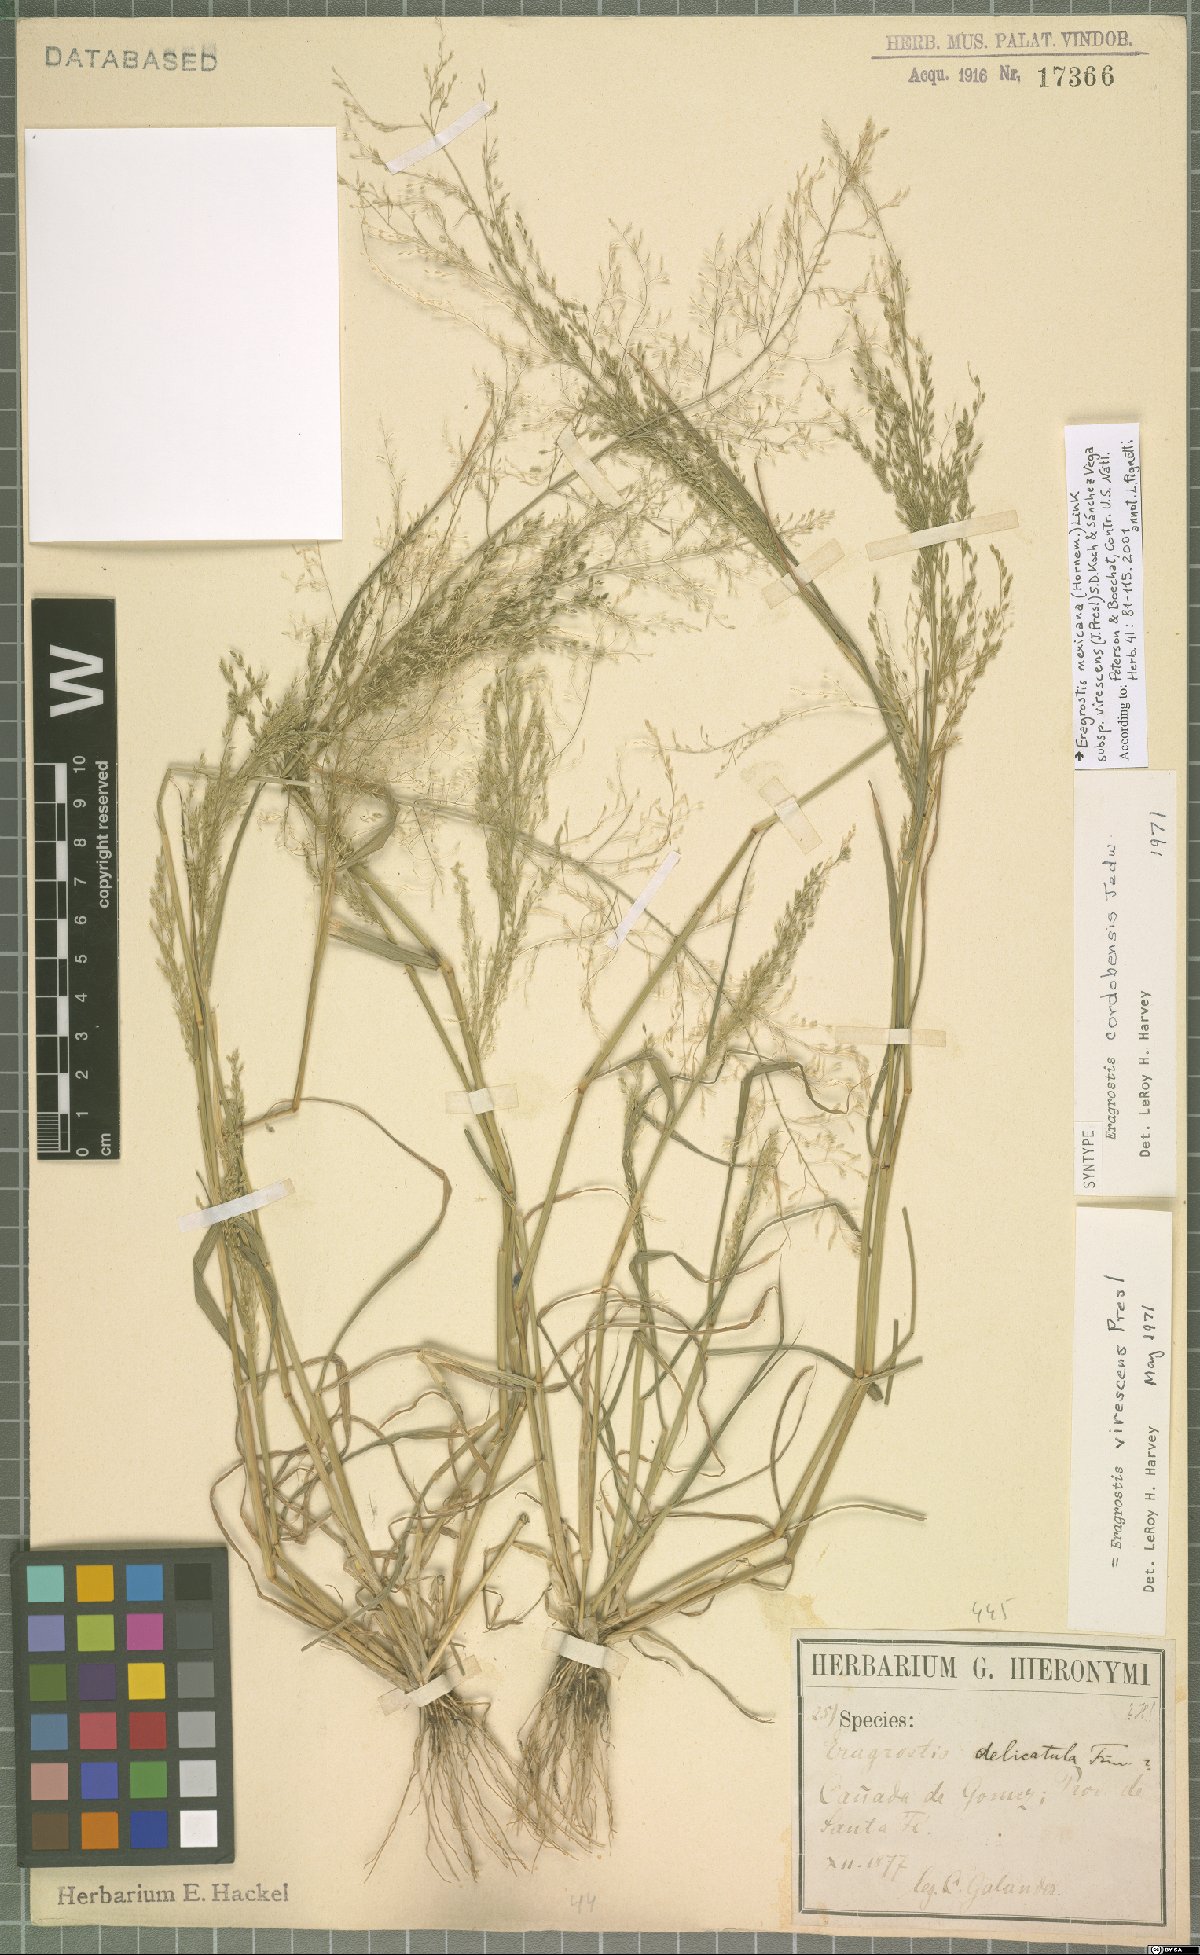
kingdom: Plantae
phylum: Tracheophyta
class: Liliopsida
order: Poales
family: Poaceae
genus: Eragrostis
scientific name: Eragrostis virescens
